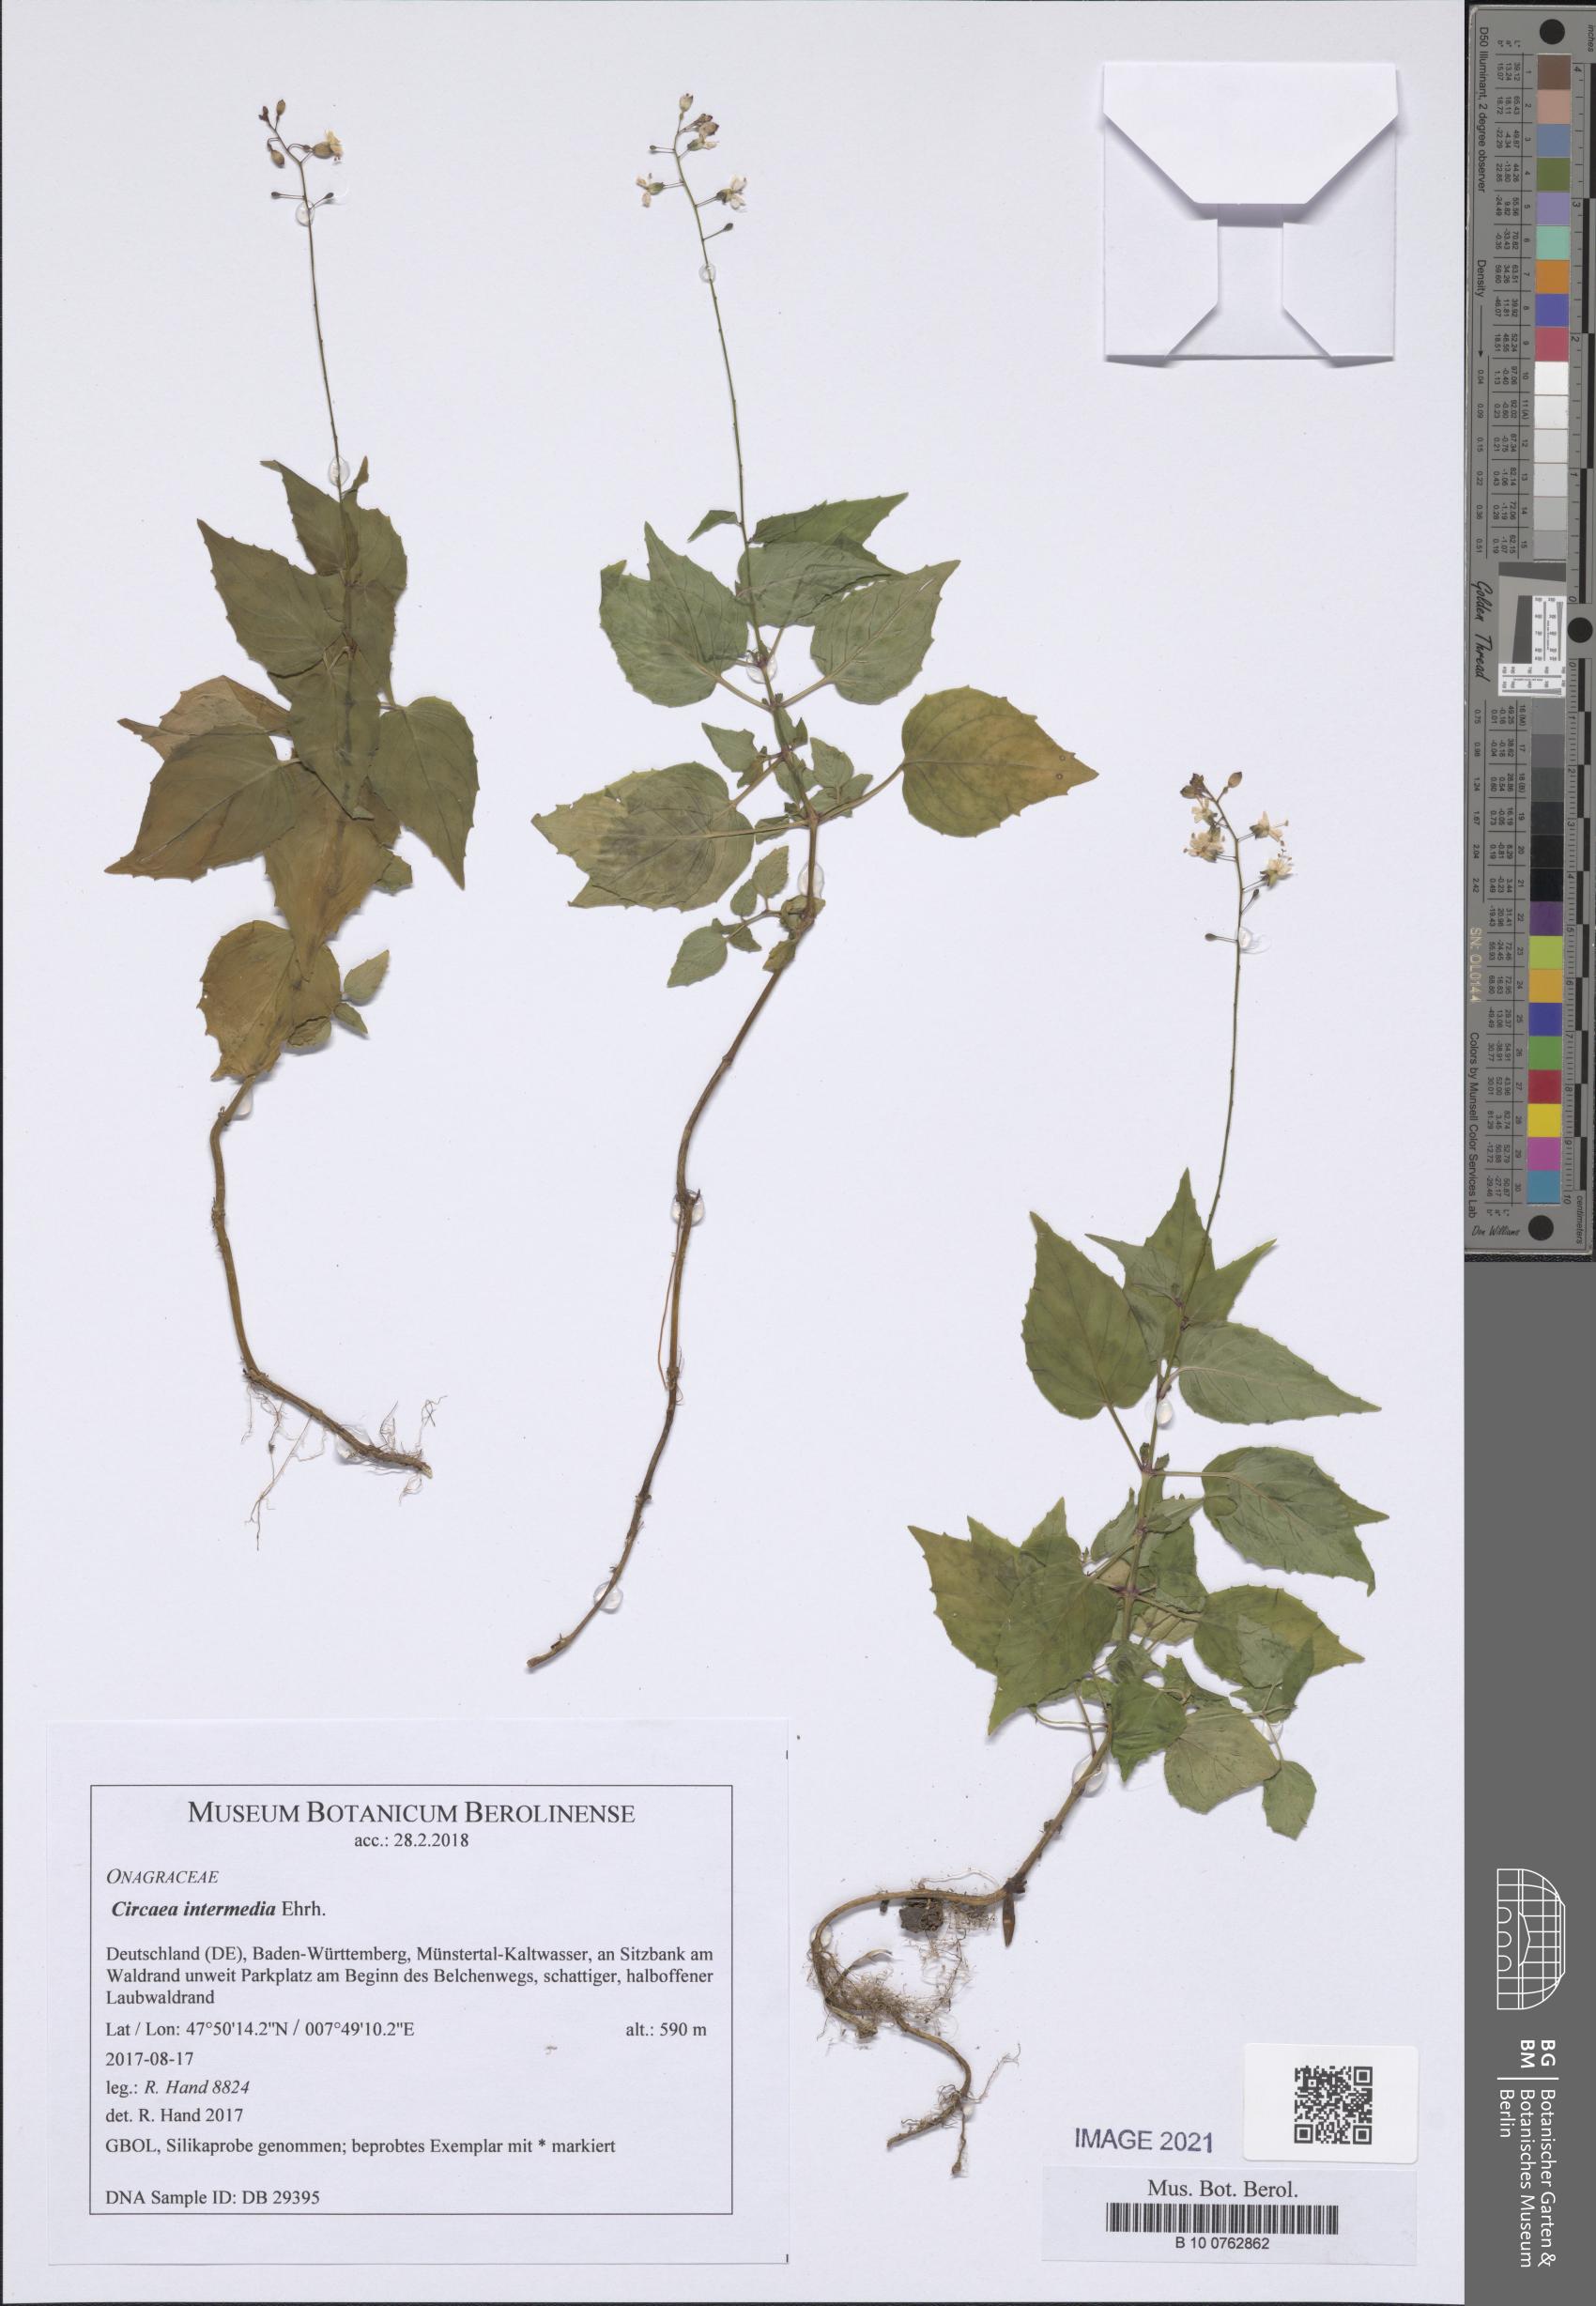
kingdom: Plantae
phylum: Tracheophyta
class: Magnoliopsida
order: Myrtales
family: Onagraceae
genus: Circaea
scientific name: Circaea intermedia
